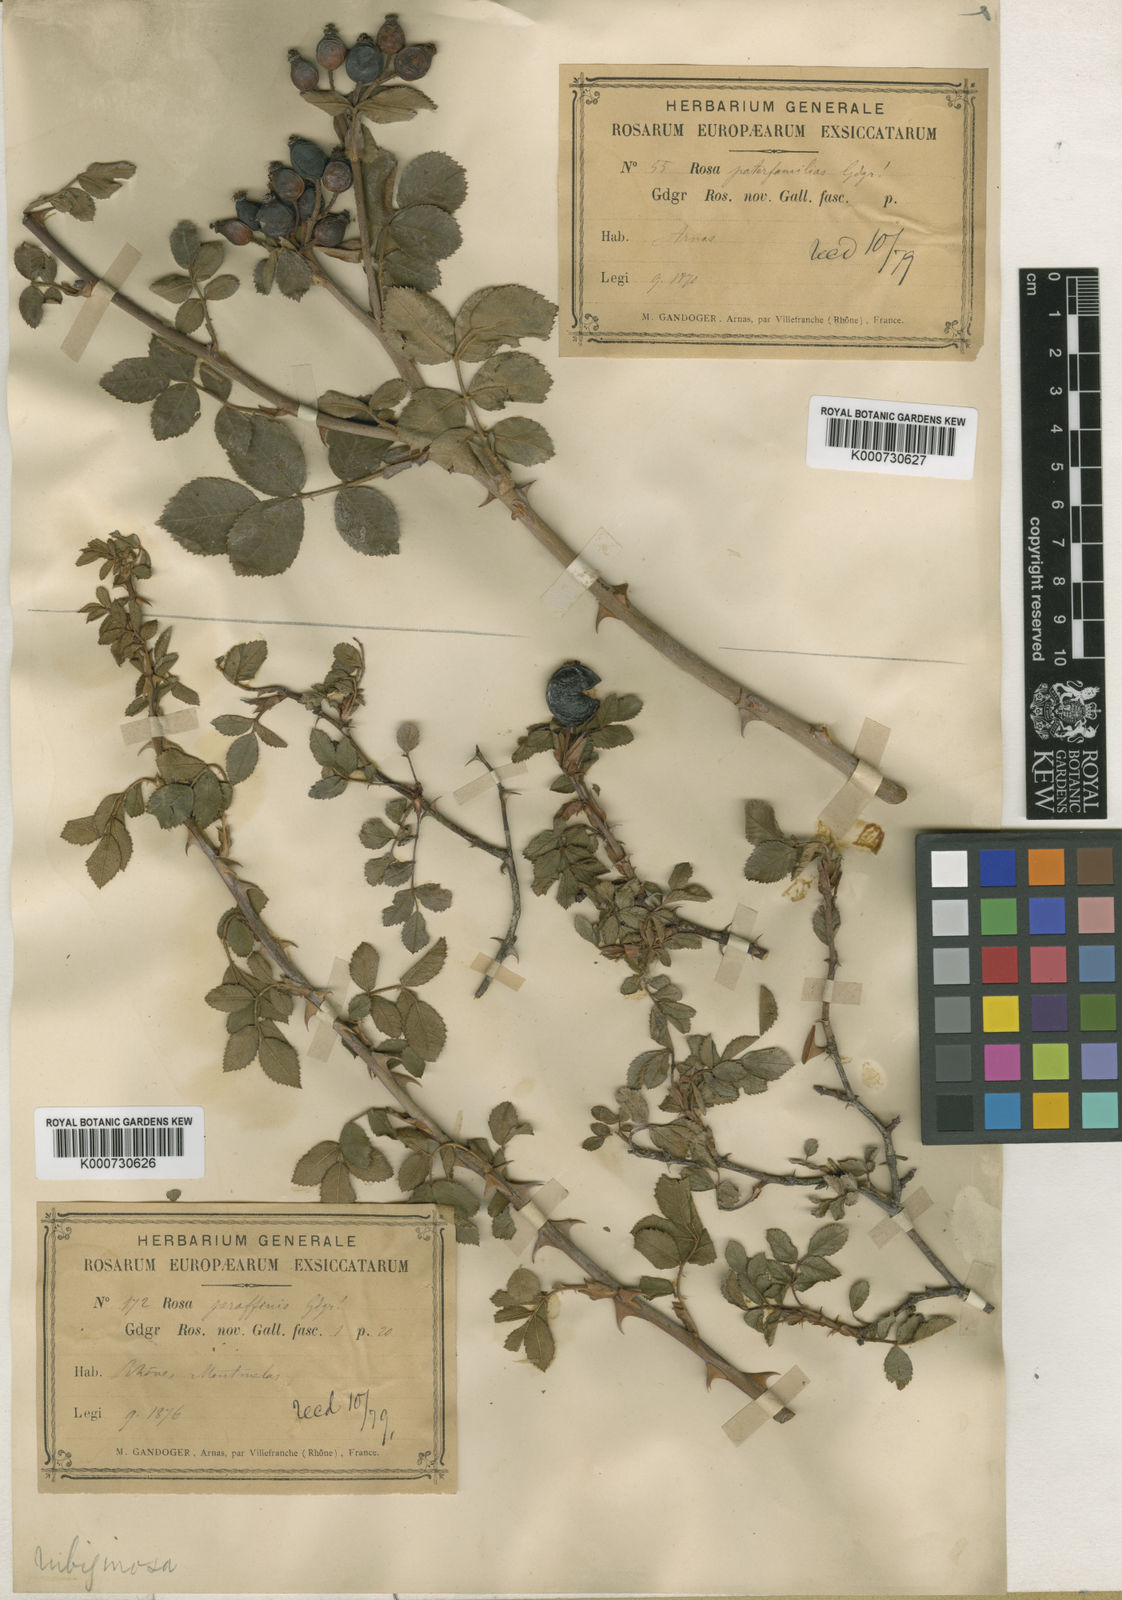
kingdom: Plantae
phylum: Tracheophyta
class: Magnoliopsida
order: Rosales
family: Rosaceae
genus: Rosa
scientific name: Rosa rubiginosa
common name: Sweet-briar
